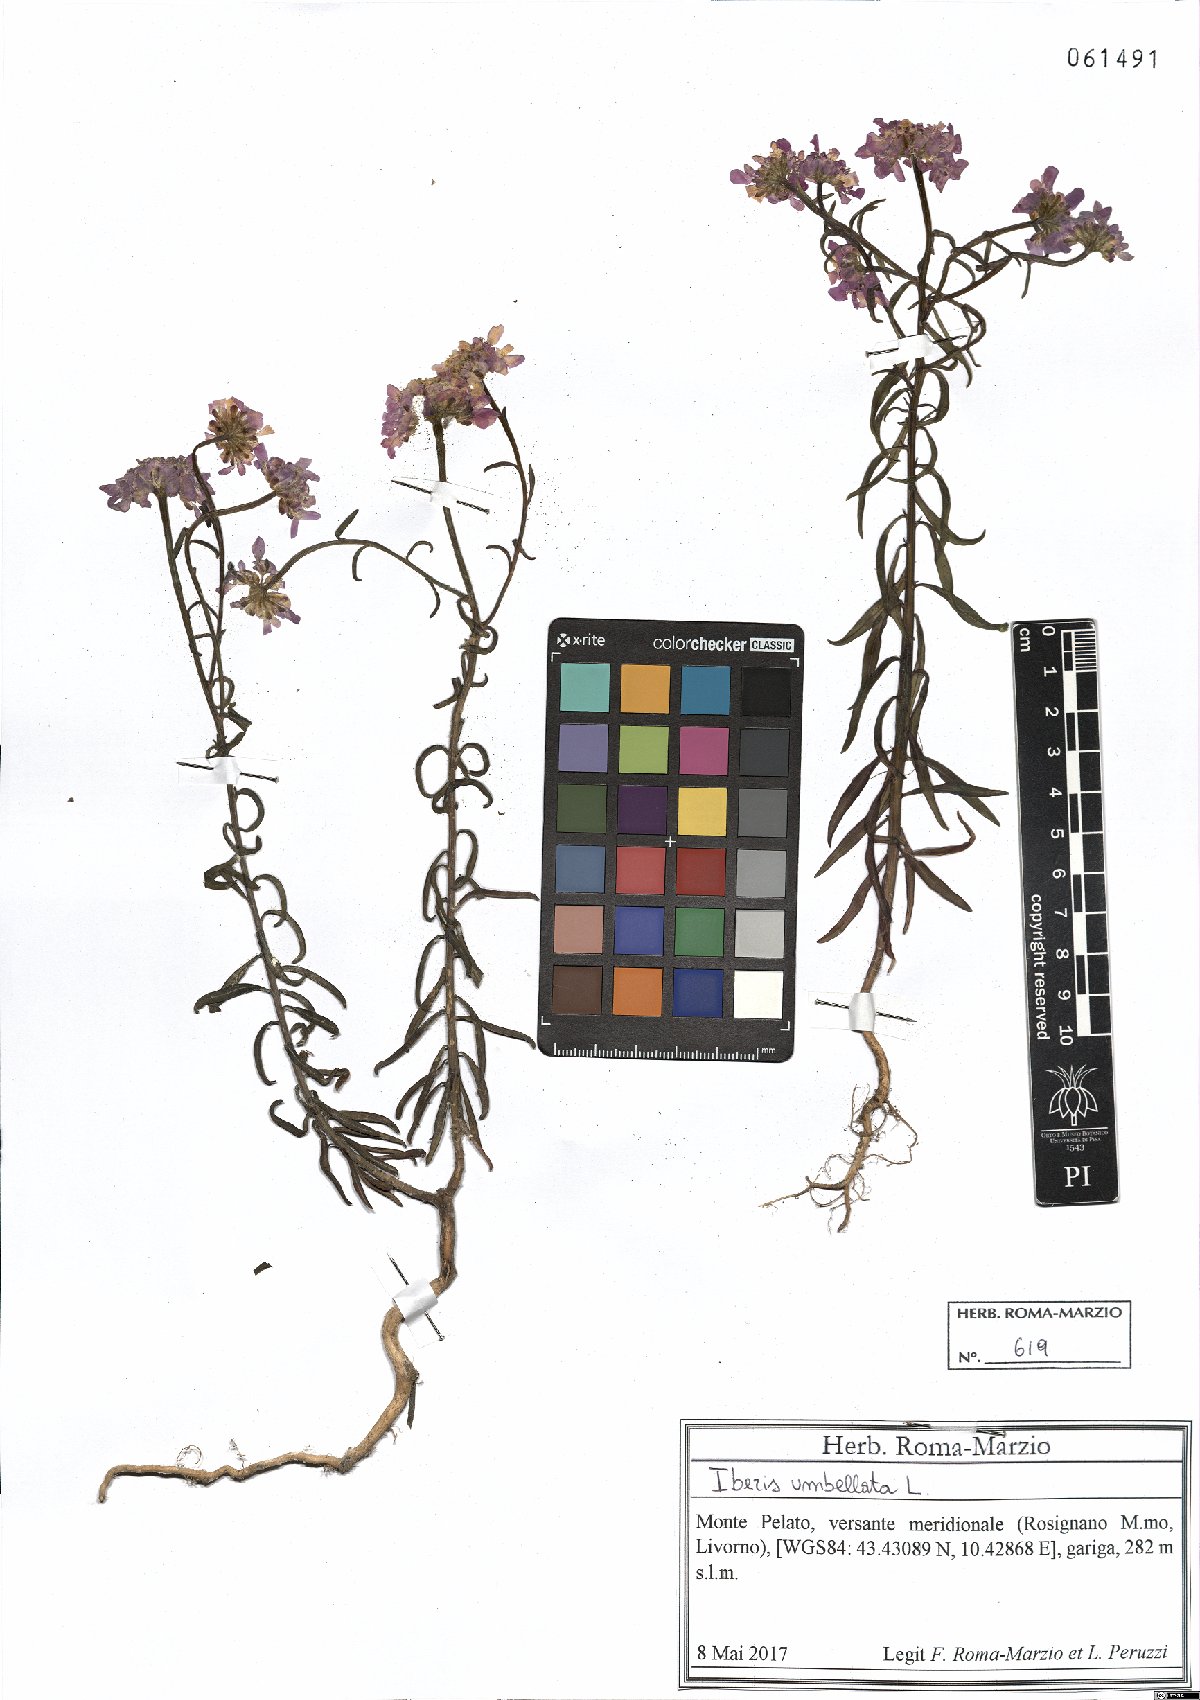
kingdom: Plantae
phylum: Tracheophyta
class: Magnoliopsida
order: Brassicales
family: Brassicaceae
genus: Iberis
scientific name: Iberis umbellata
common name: Globe candytuft
